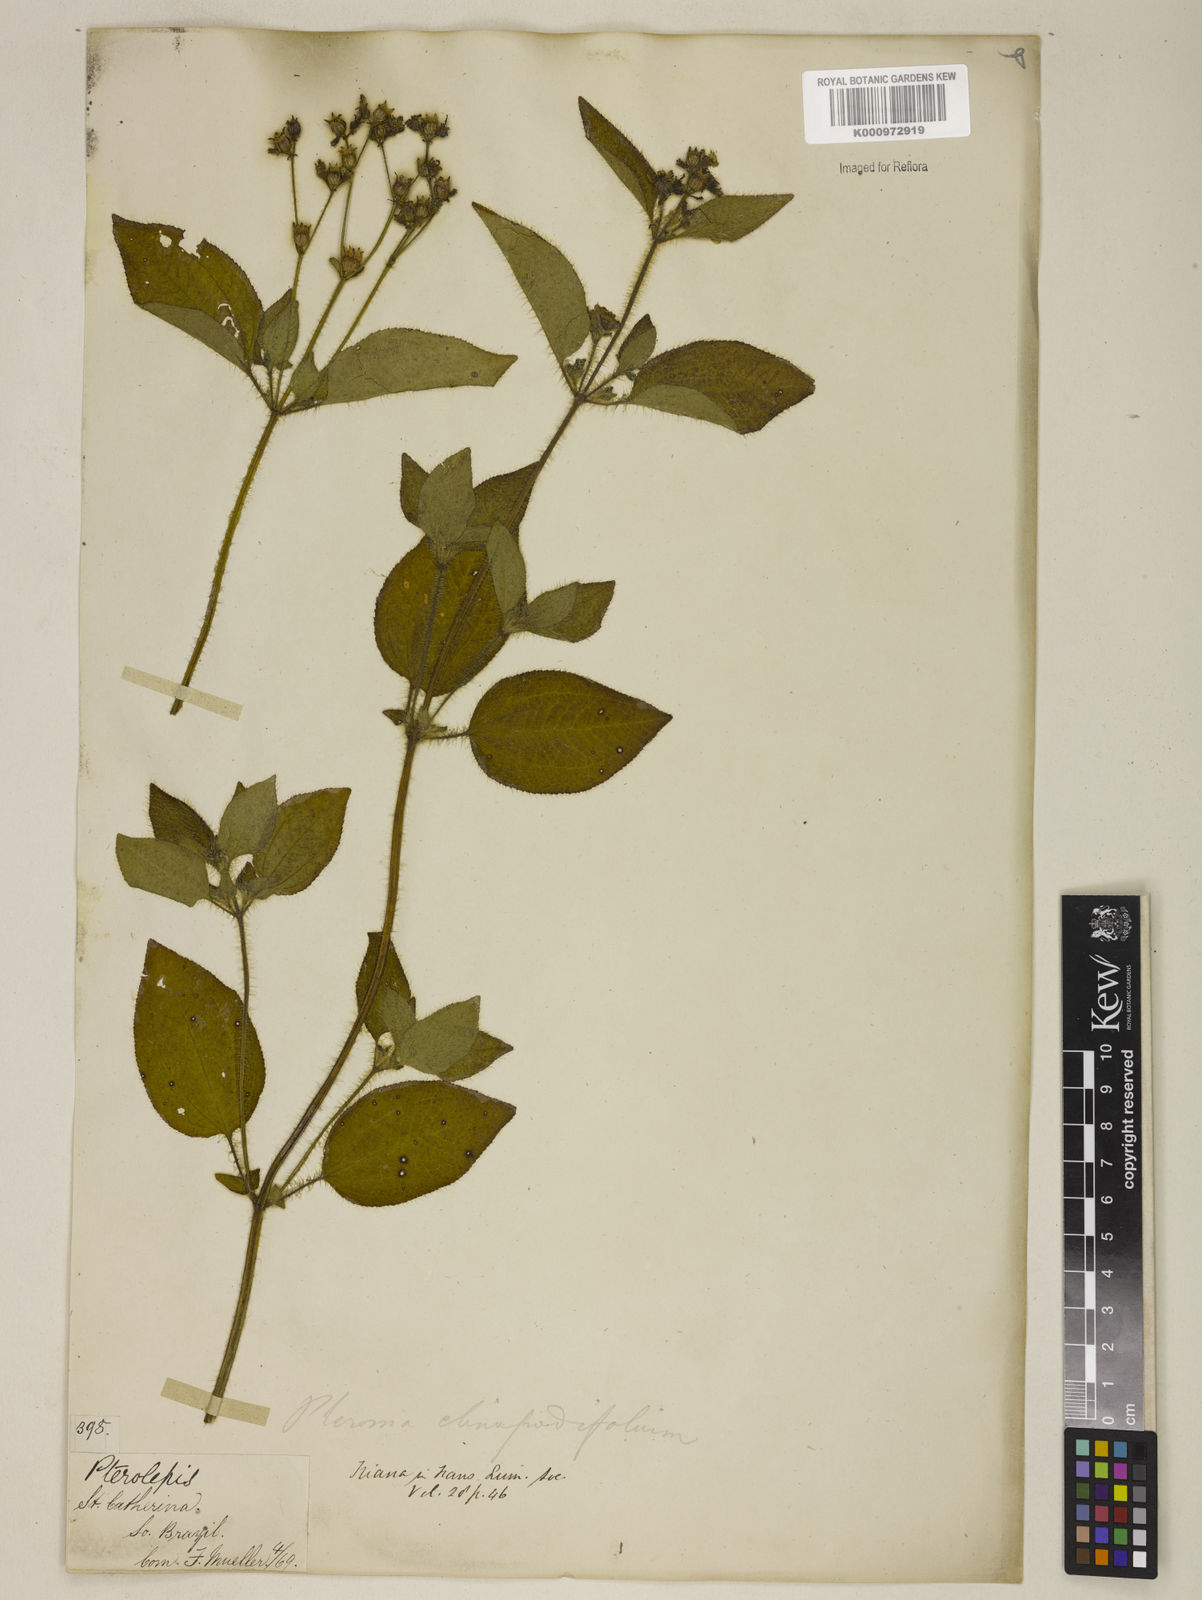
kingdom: Plantae
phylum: Tracheophyta
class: Magnoliopsida
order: Myrtales
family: Melastomataceae
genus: Chaetogastra
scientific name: Chaetogastra clinopodifolia
